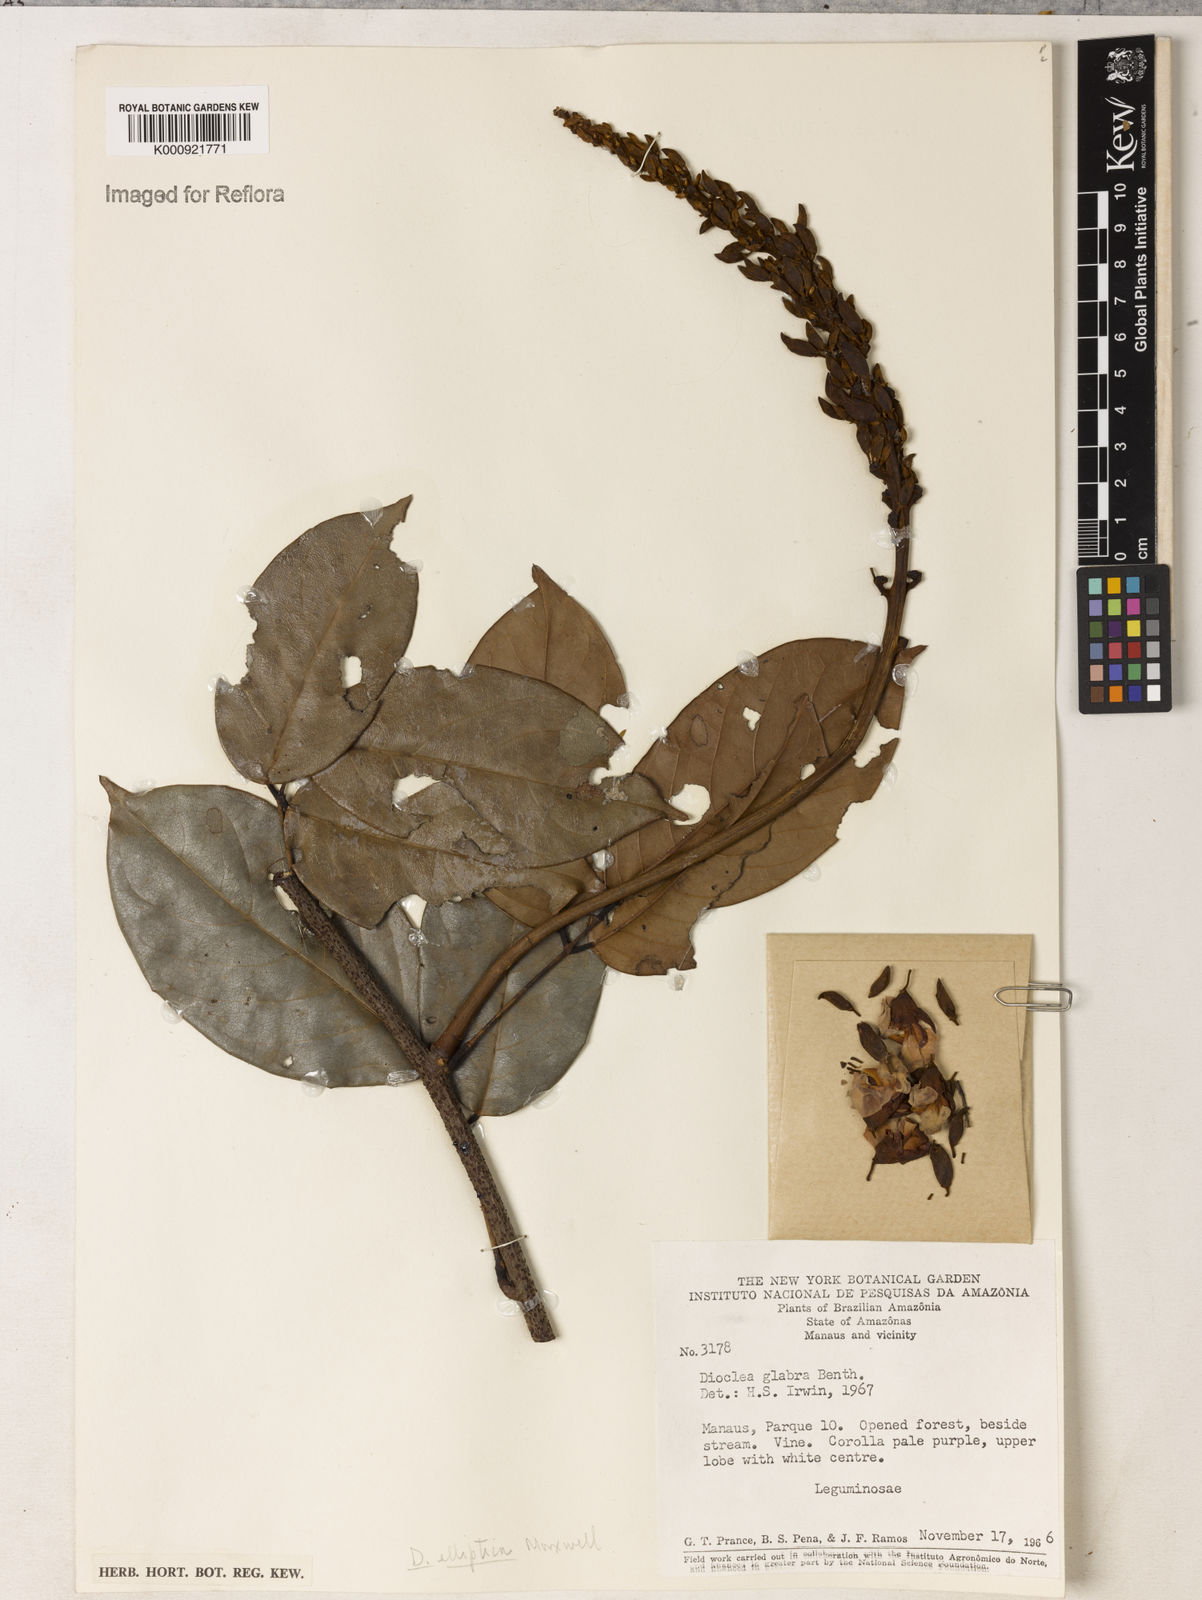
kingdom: Plantae
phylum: Tracheophyta
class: Magnoliopsida
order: Fabales
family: Fabaceae
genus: Macropsychanthus
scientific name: Macropsychanthus glaber
